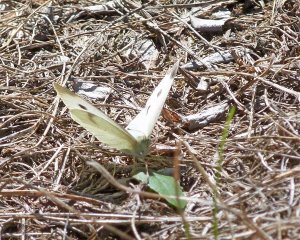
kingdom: Animalia
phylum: Arthropoda
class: Insecta
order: Lepidoptera
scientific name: Lepidoptera
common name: Butterflies
